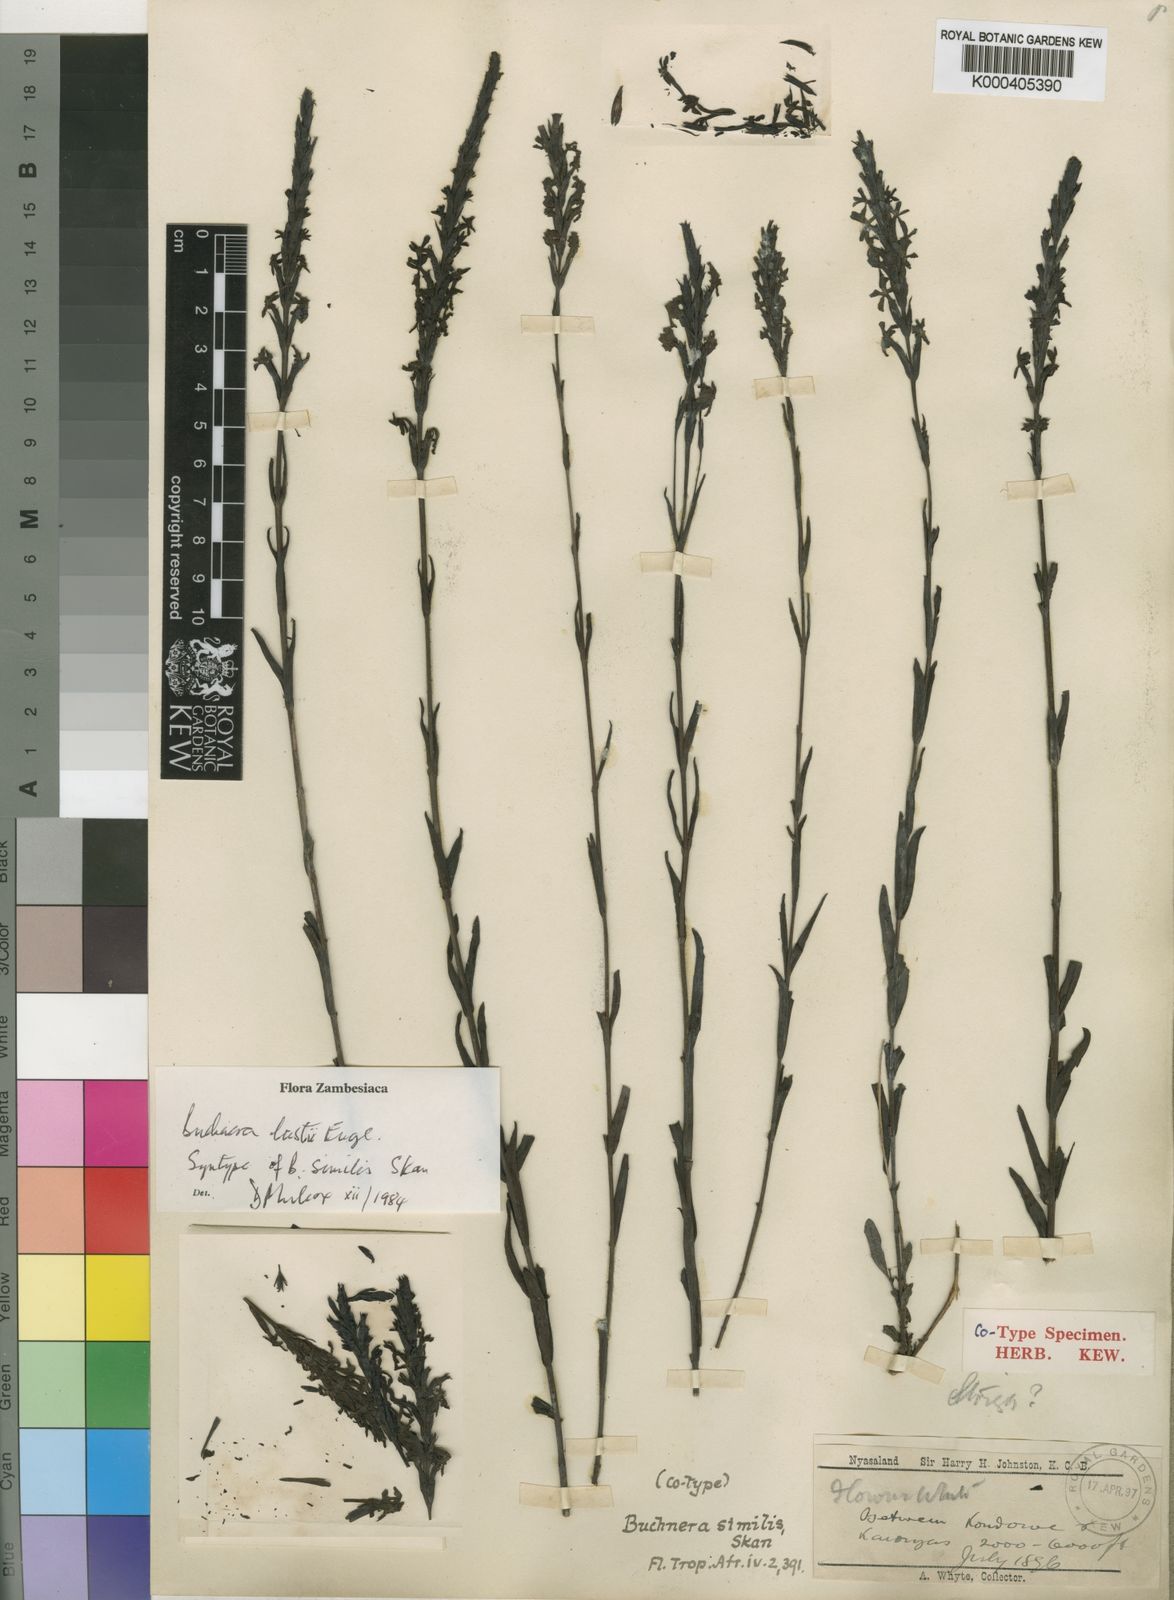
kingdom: Plantae
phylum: Tracheophyta
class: Magnoliopsida
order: Lamiales
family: Orobanchaceae
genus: Buchnera
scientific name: Buchnera lastii
